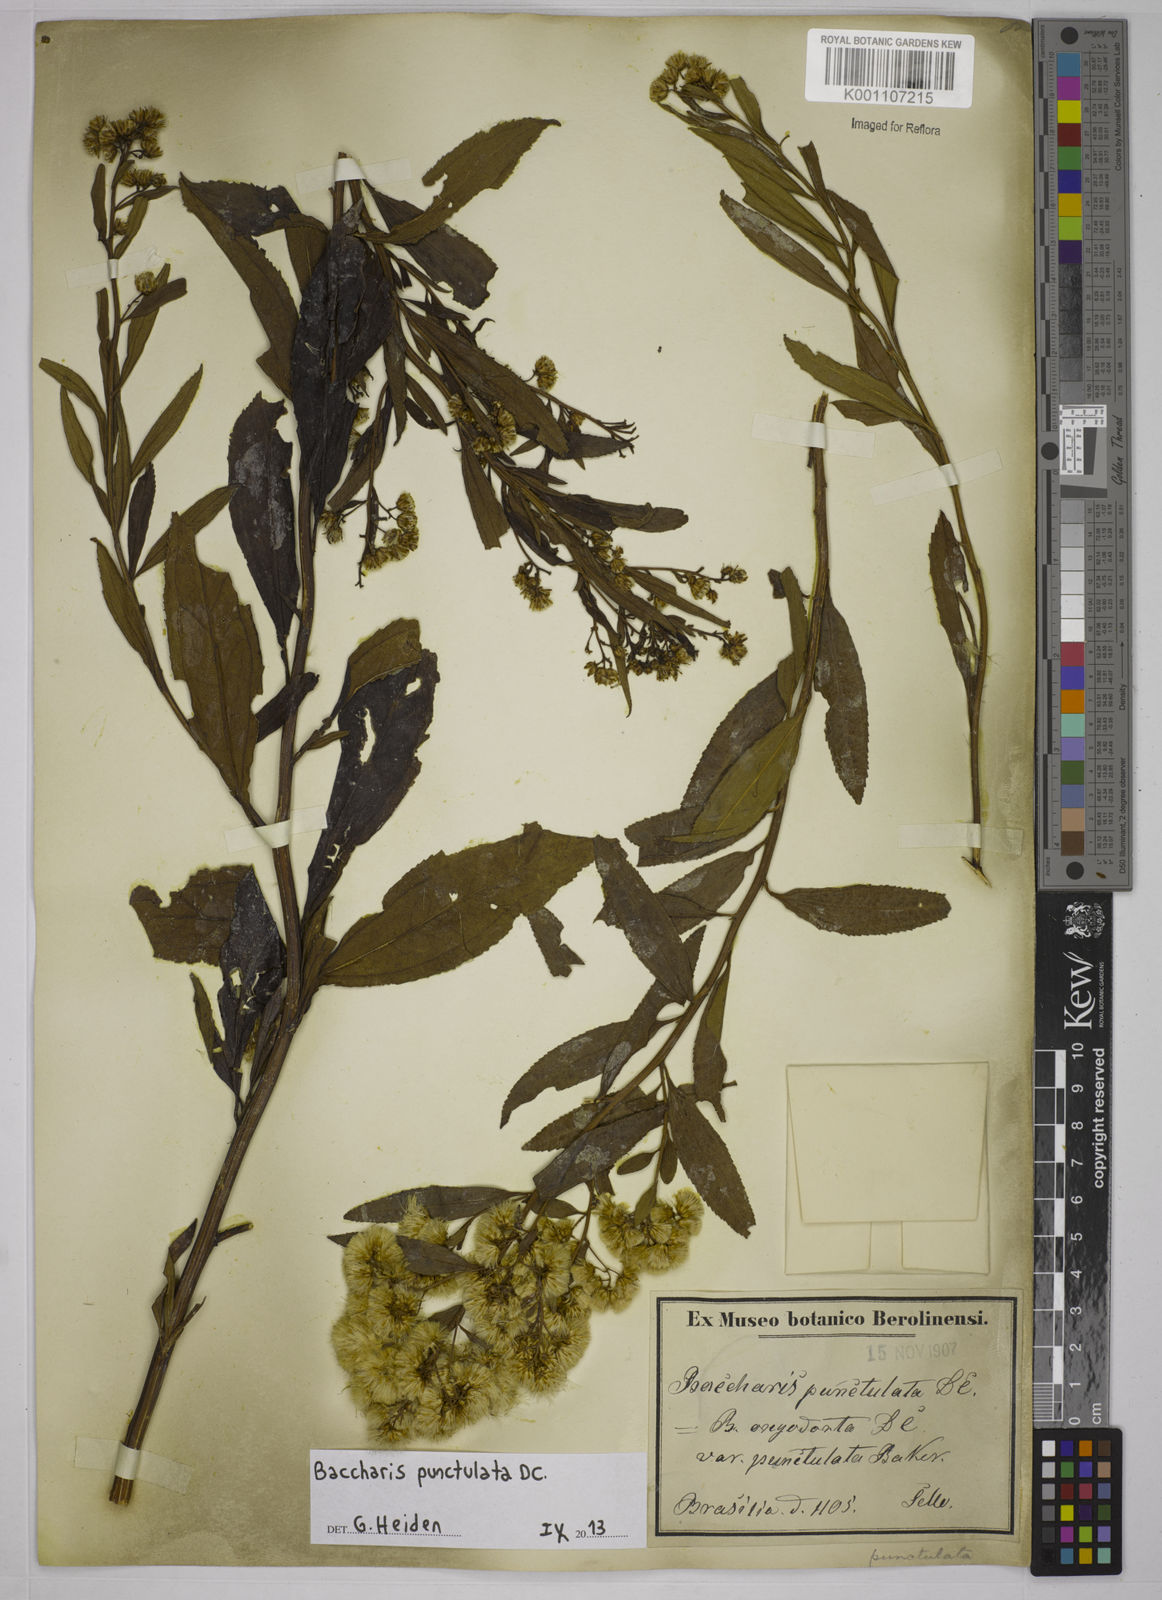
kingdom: Plantae
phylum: Tracheophyta
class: Magnoliopsida
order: Asterales
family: Asteraceae
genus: Baccharis
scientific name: Baccharis punctulata
